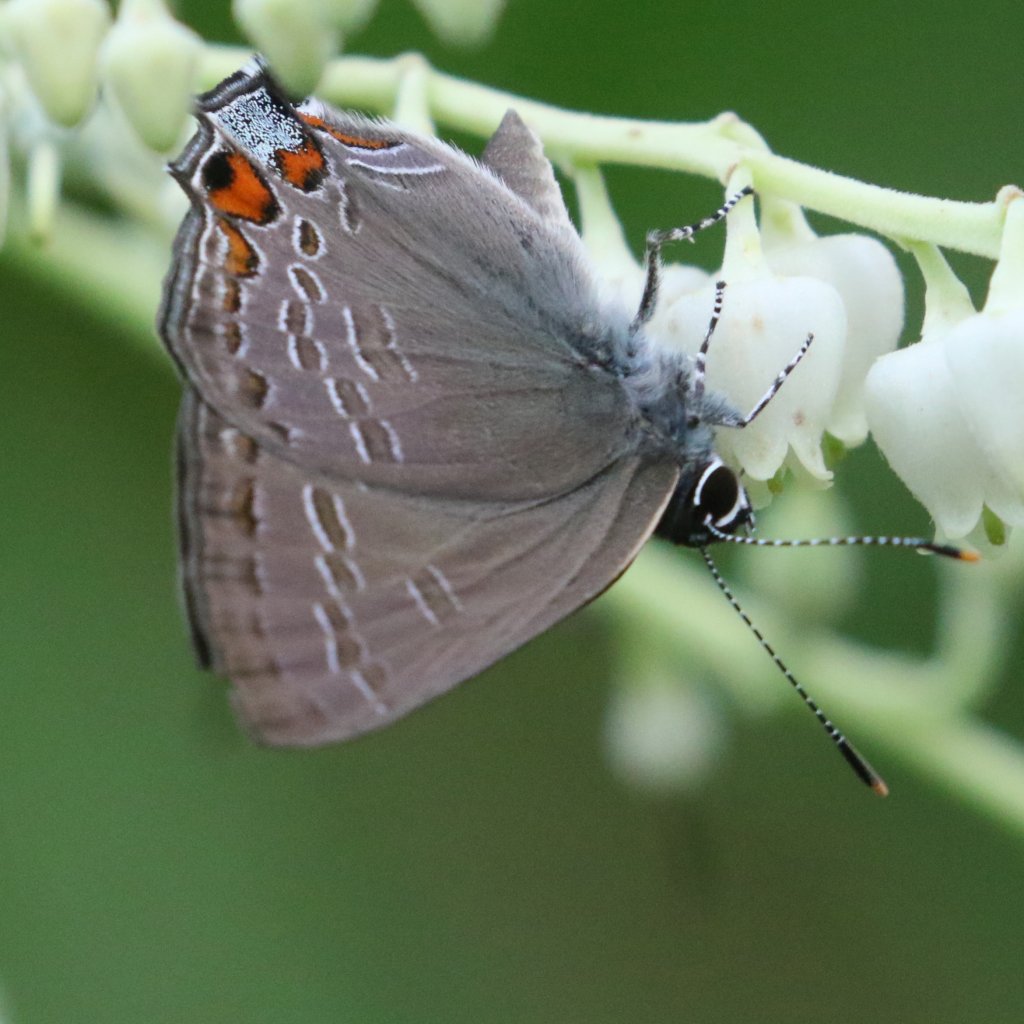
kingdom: Animalia
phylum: Arthropoda
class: Insecta
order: Lepidoptera
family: Lycaenidae
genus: Strymon
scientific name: Strymon kingi
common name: King's Hairstreak
